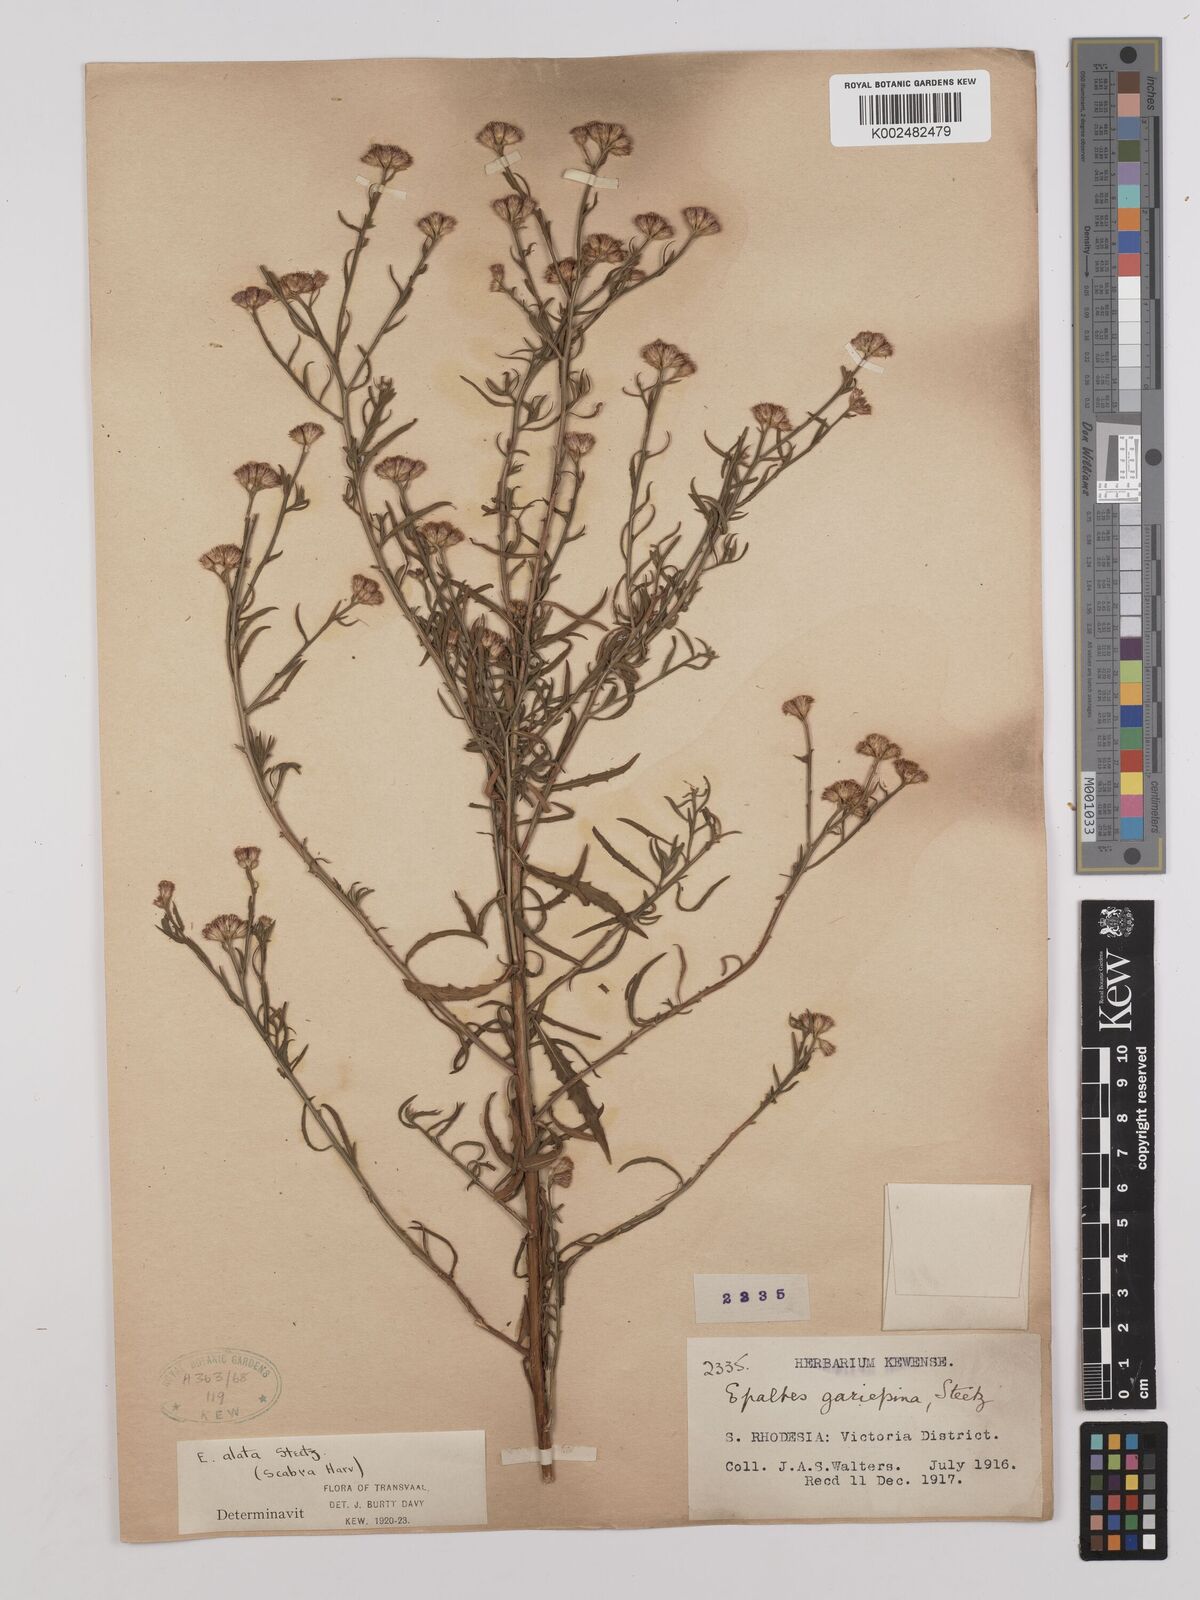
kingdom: Plantae
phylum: Tracheophyta
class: Magnoliopsida
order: Asterales
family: Asteraceae
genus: Litogyne
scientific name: Litogyne gariepina
